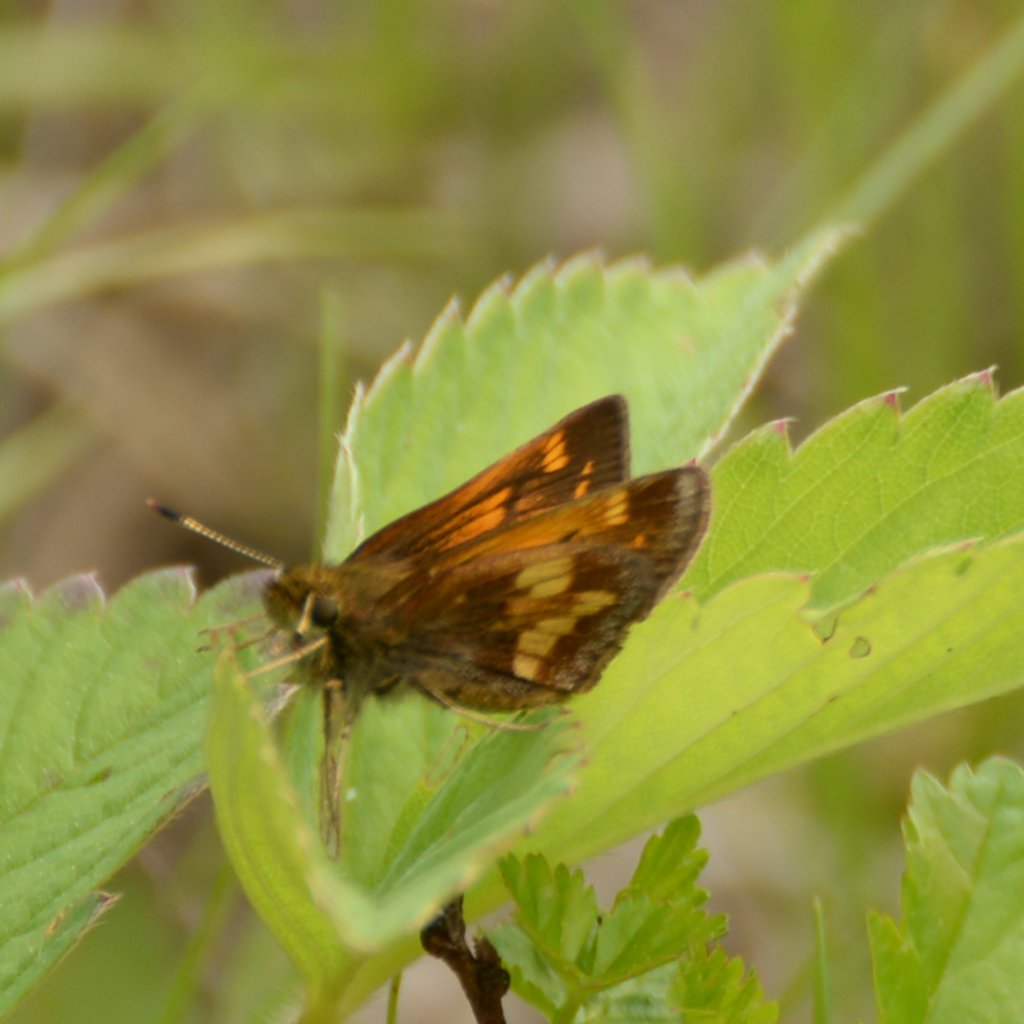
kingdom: Animalia
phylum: Arthropoda
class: Insecta
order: Lepidoptera
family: Hesperiidae
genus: Lon
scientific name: Lon hobomok
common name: Hobomok Skipper
